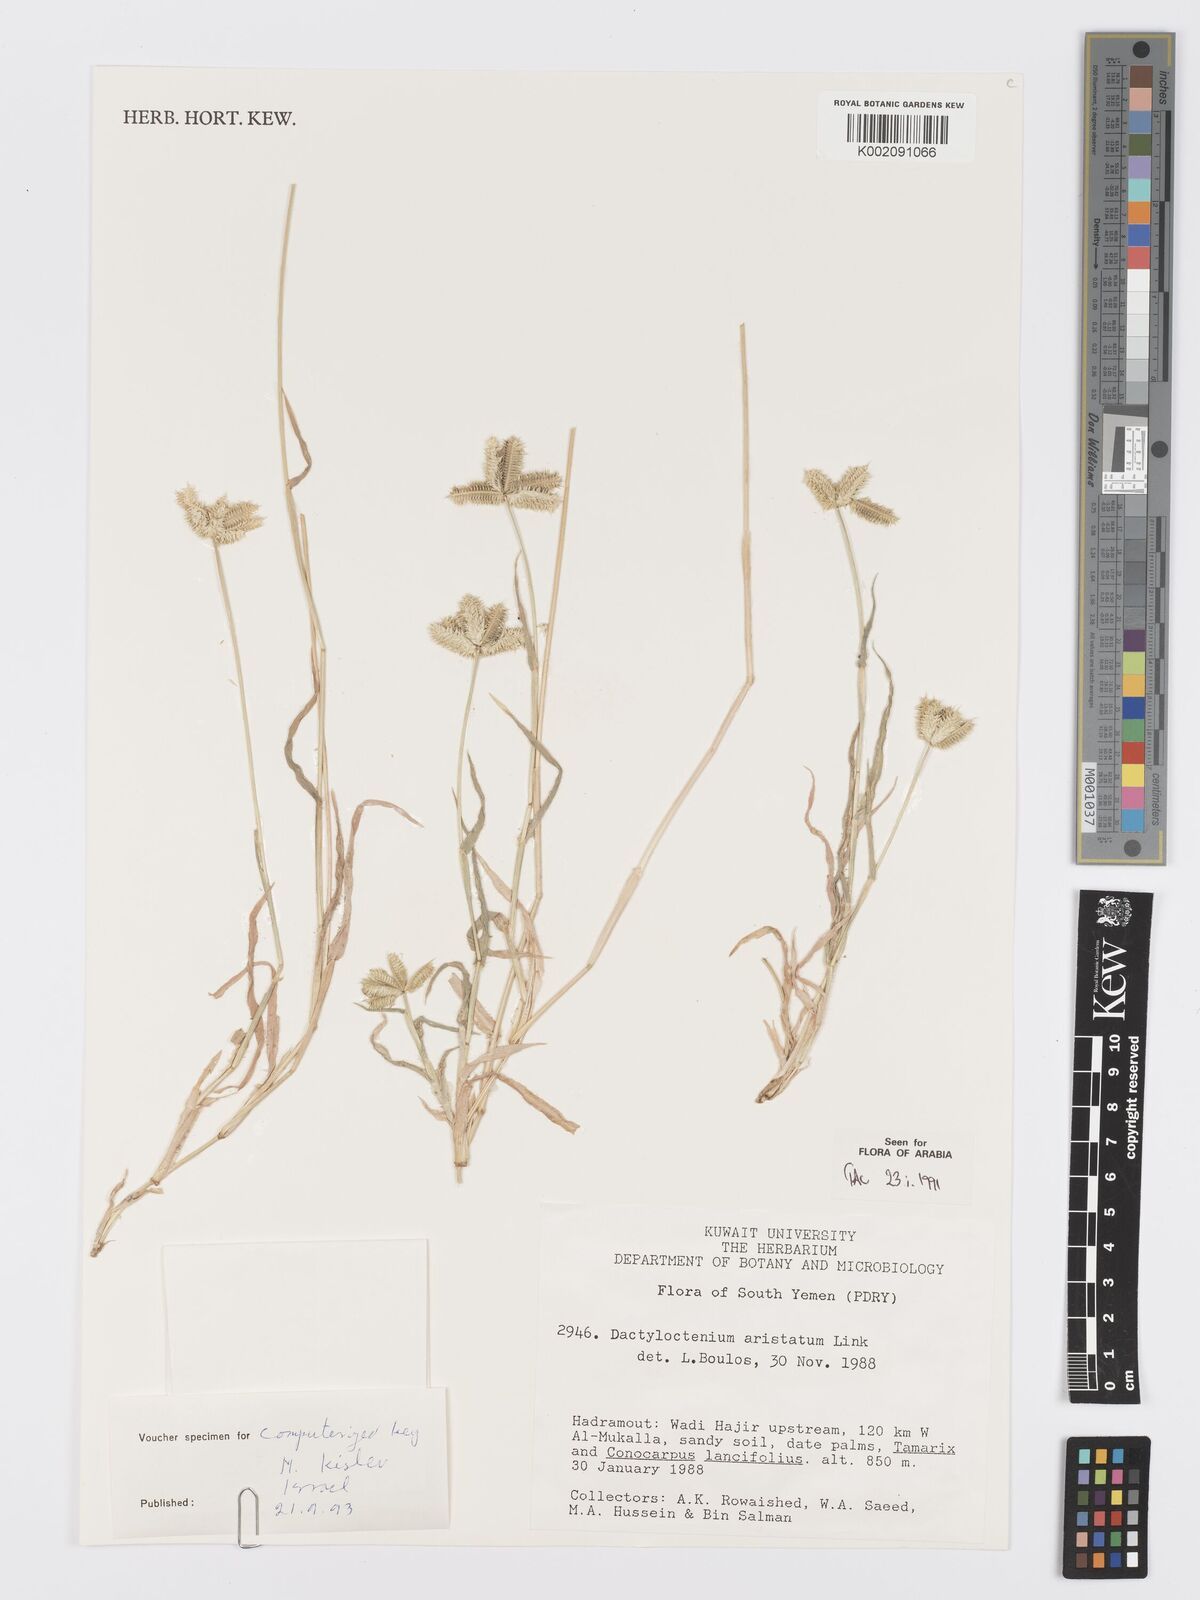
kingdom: Plantae
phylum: Tracheophyta
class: Liliopsida
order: Poales
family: Poaceae
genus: Dactyloctenium
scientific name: Dactyloctenium aegyptium
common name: Egyptian grass
